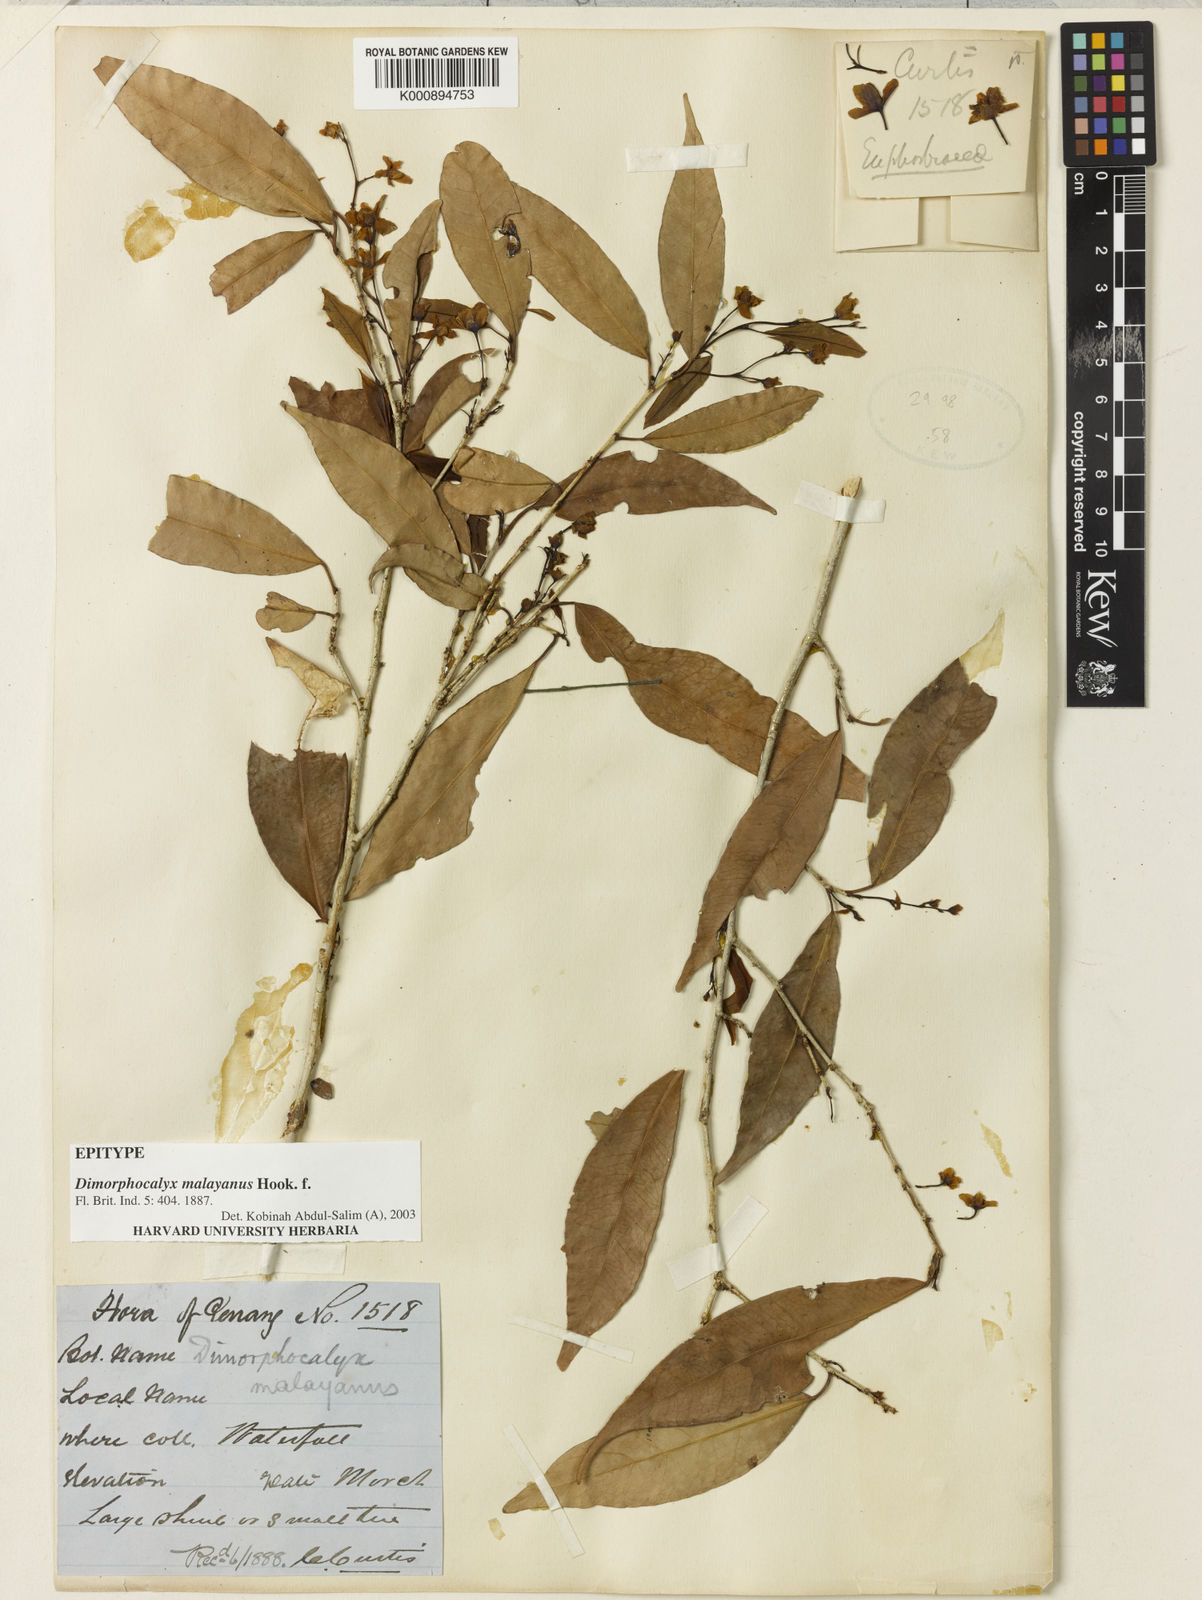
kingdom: Plantae
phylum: Tracheophyta
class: Magnoliopsida
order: Malpighiales
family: Euphorbiaceae
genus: Tritaxis
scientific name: Tritaxis malayana
